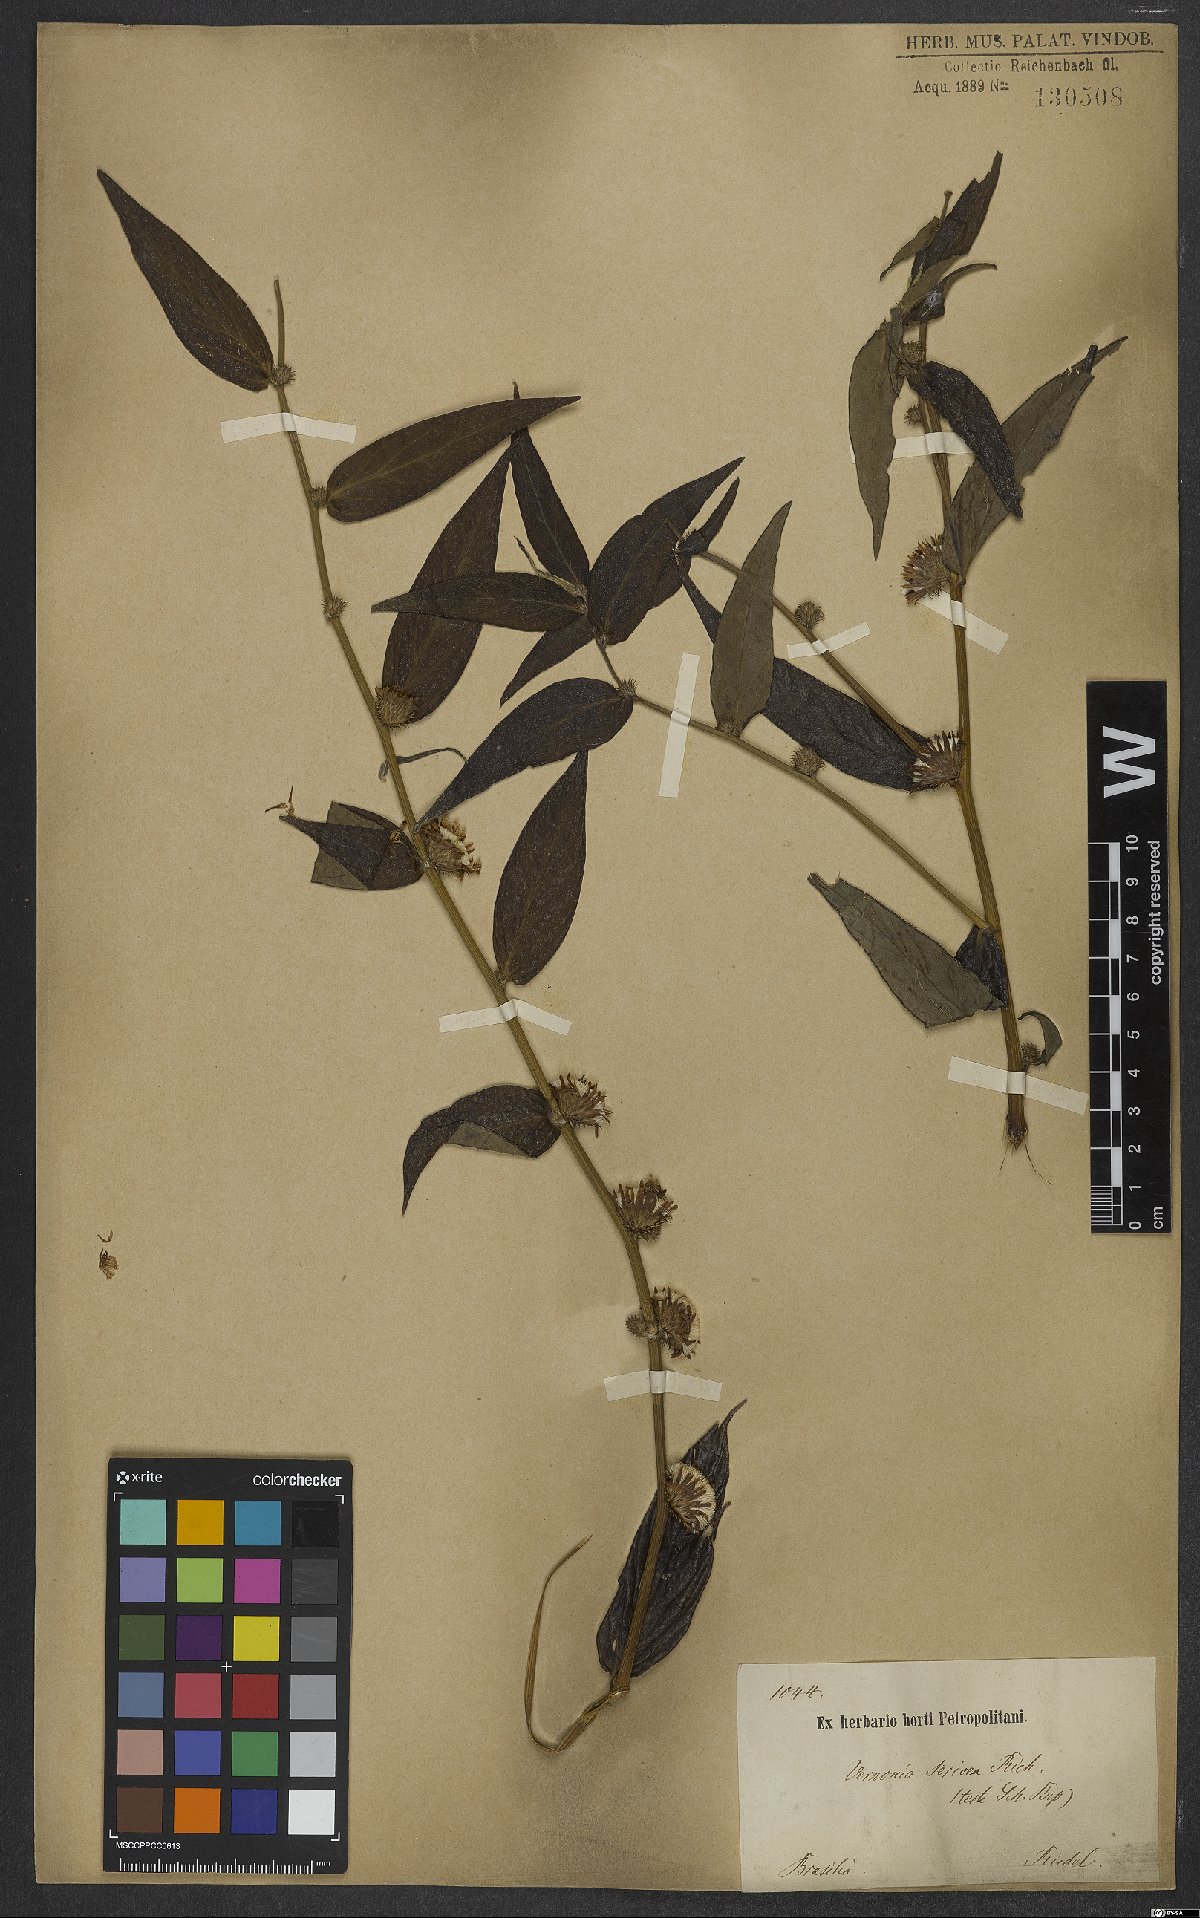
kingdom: Plantae
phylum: Tracheophyta
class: Magnoliopsida
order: Asterales
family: Asteraceae
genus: Lepidaploa
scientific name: Lepidaploa sericea
